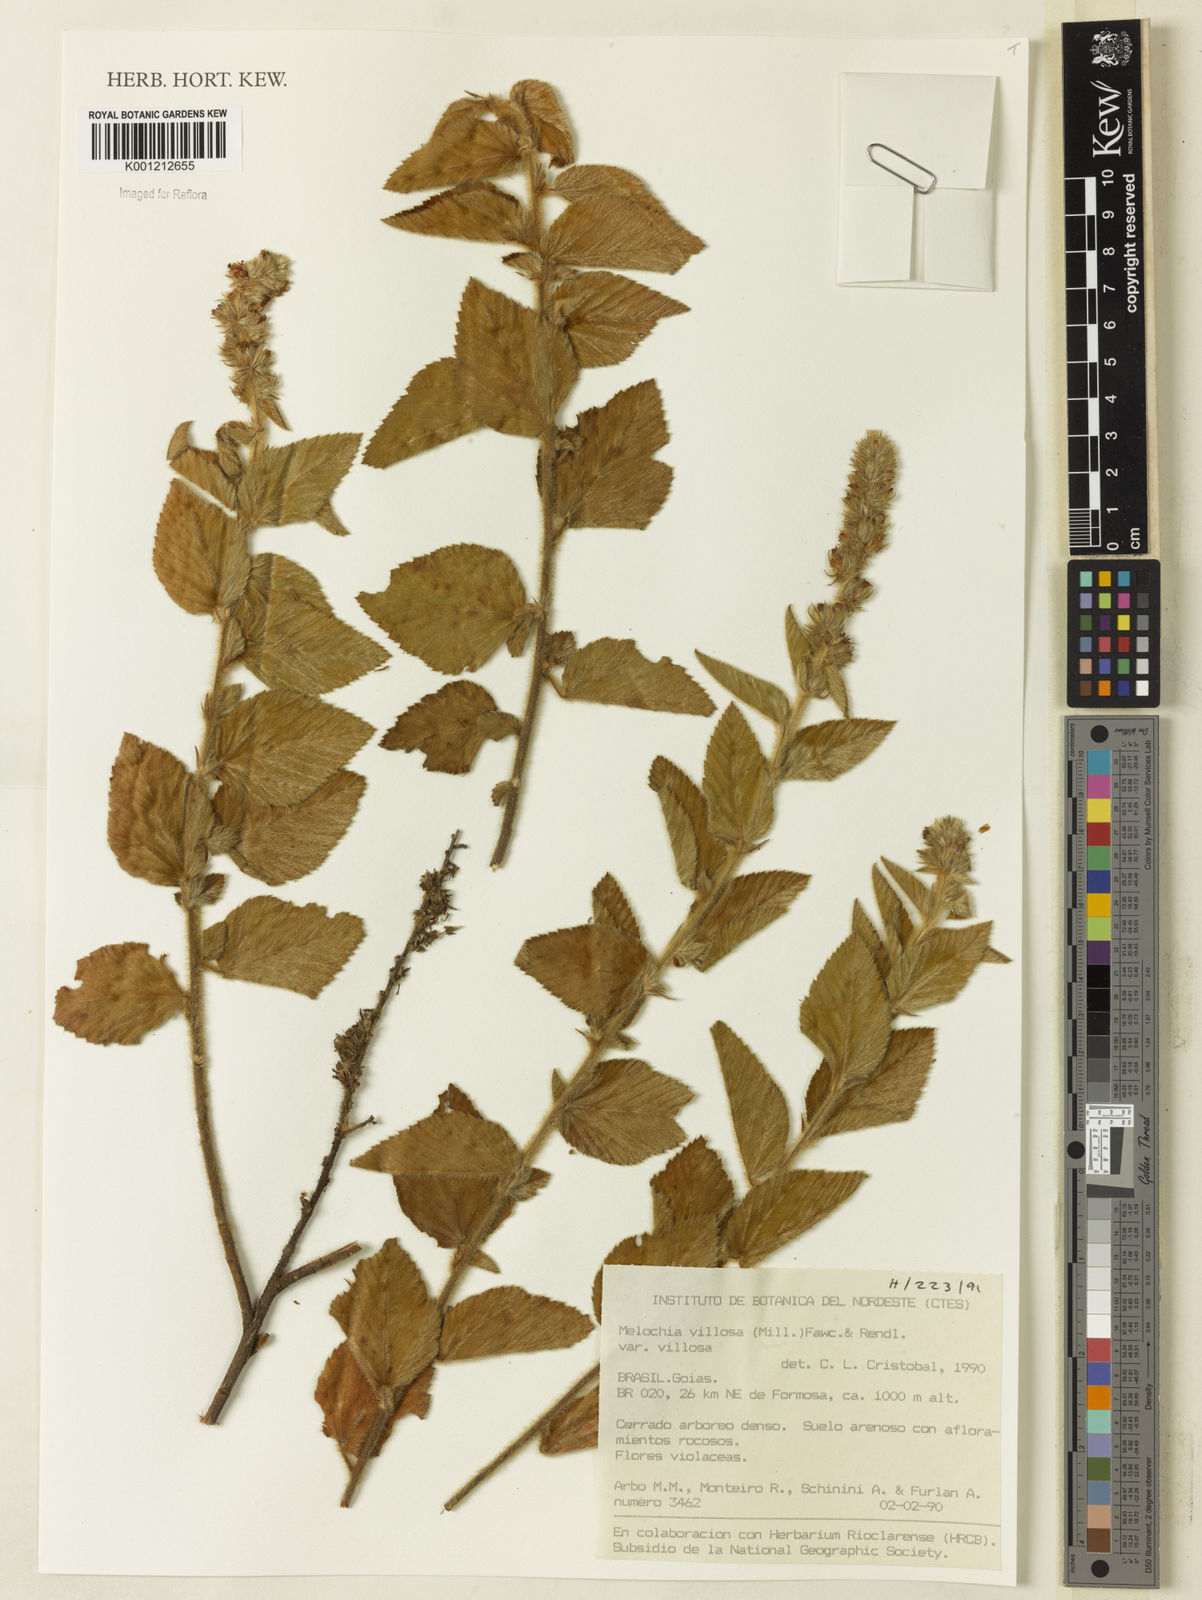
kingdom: Plantae
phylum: Tracheophyta
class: Magnoliopsida
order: Malvales
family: Malvaceae
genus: Melochia
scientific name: Melochia spicata
